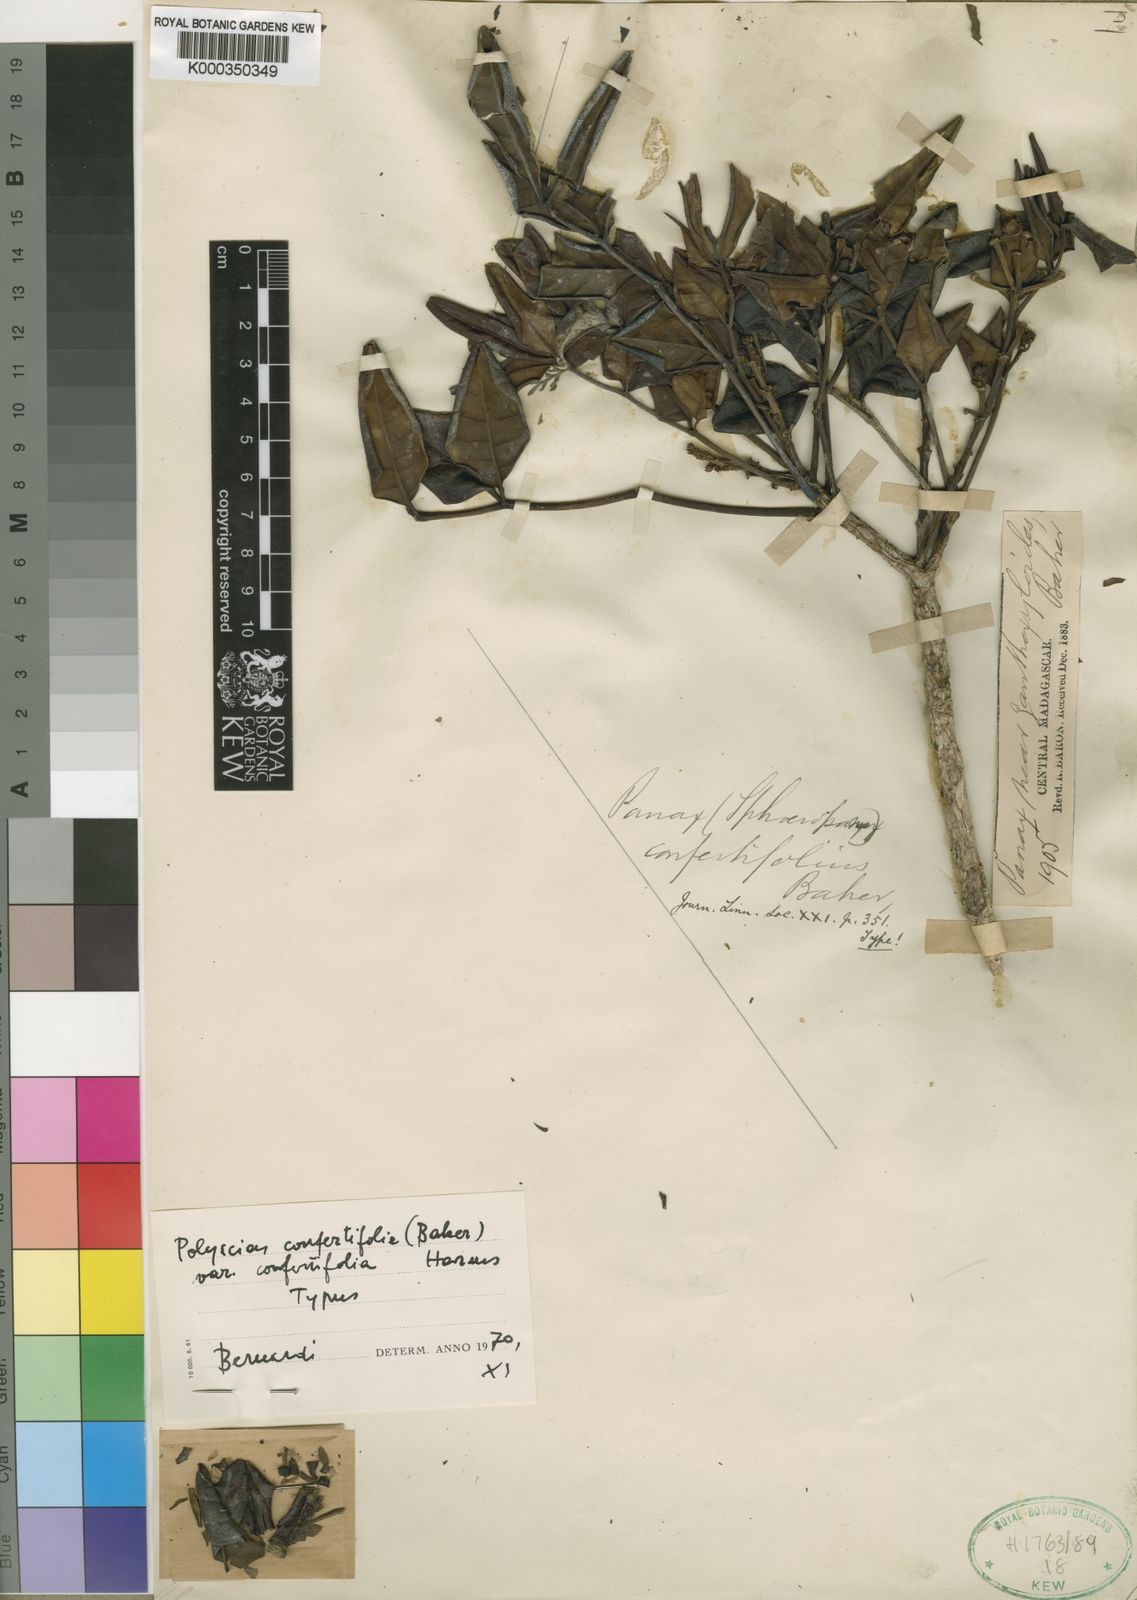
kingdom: Plantae
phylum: Tracheophyta
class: Magnoliopsida
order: Apiales
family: Araliaceae
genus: Polyscias
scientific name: Polyscias confertifolia
